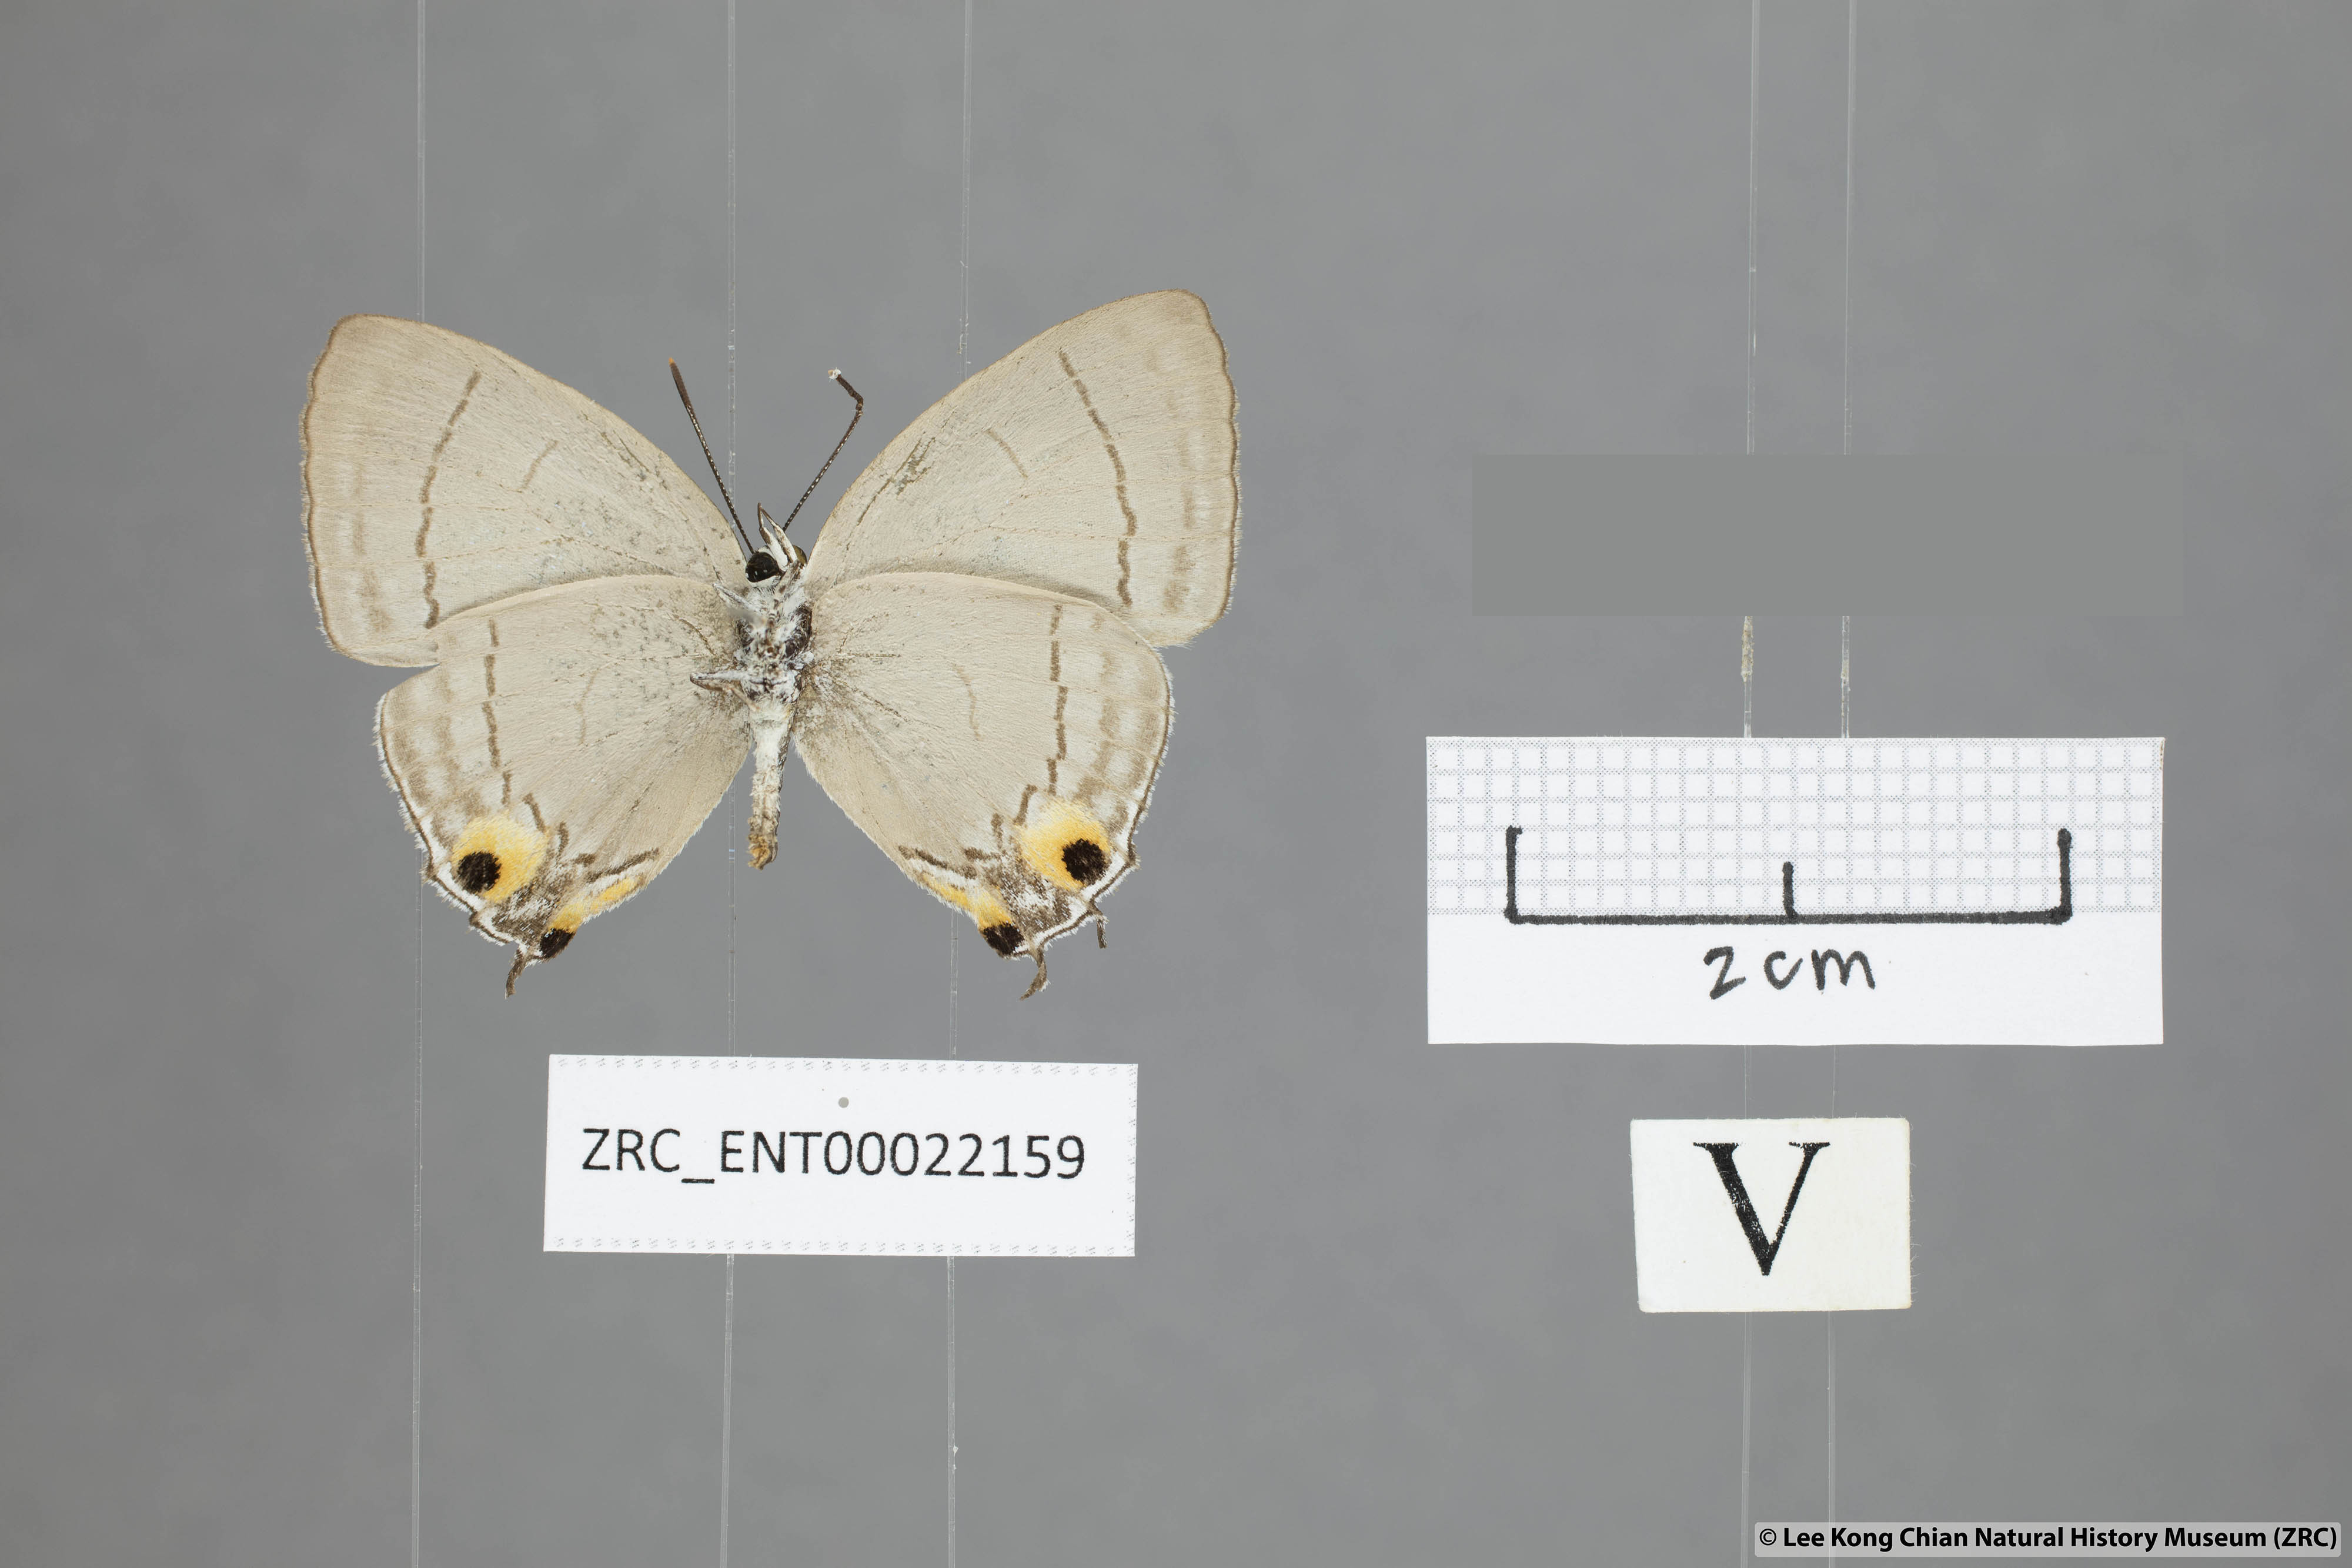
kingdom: Animalia
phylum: Arthropoda
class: Insecta
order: Lepidoptera
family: Lycaenidae
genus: Tajuria
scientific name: Tajuria jalajala
